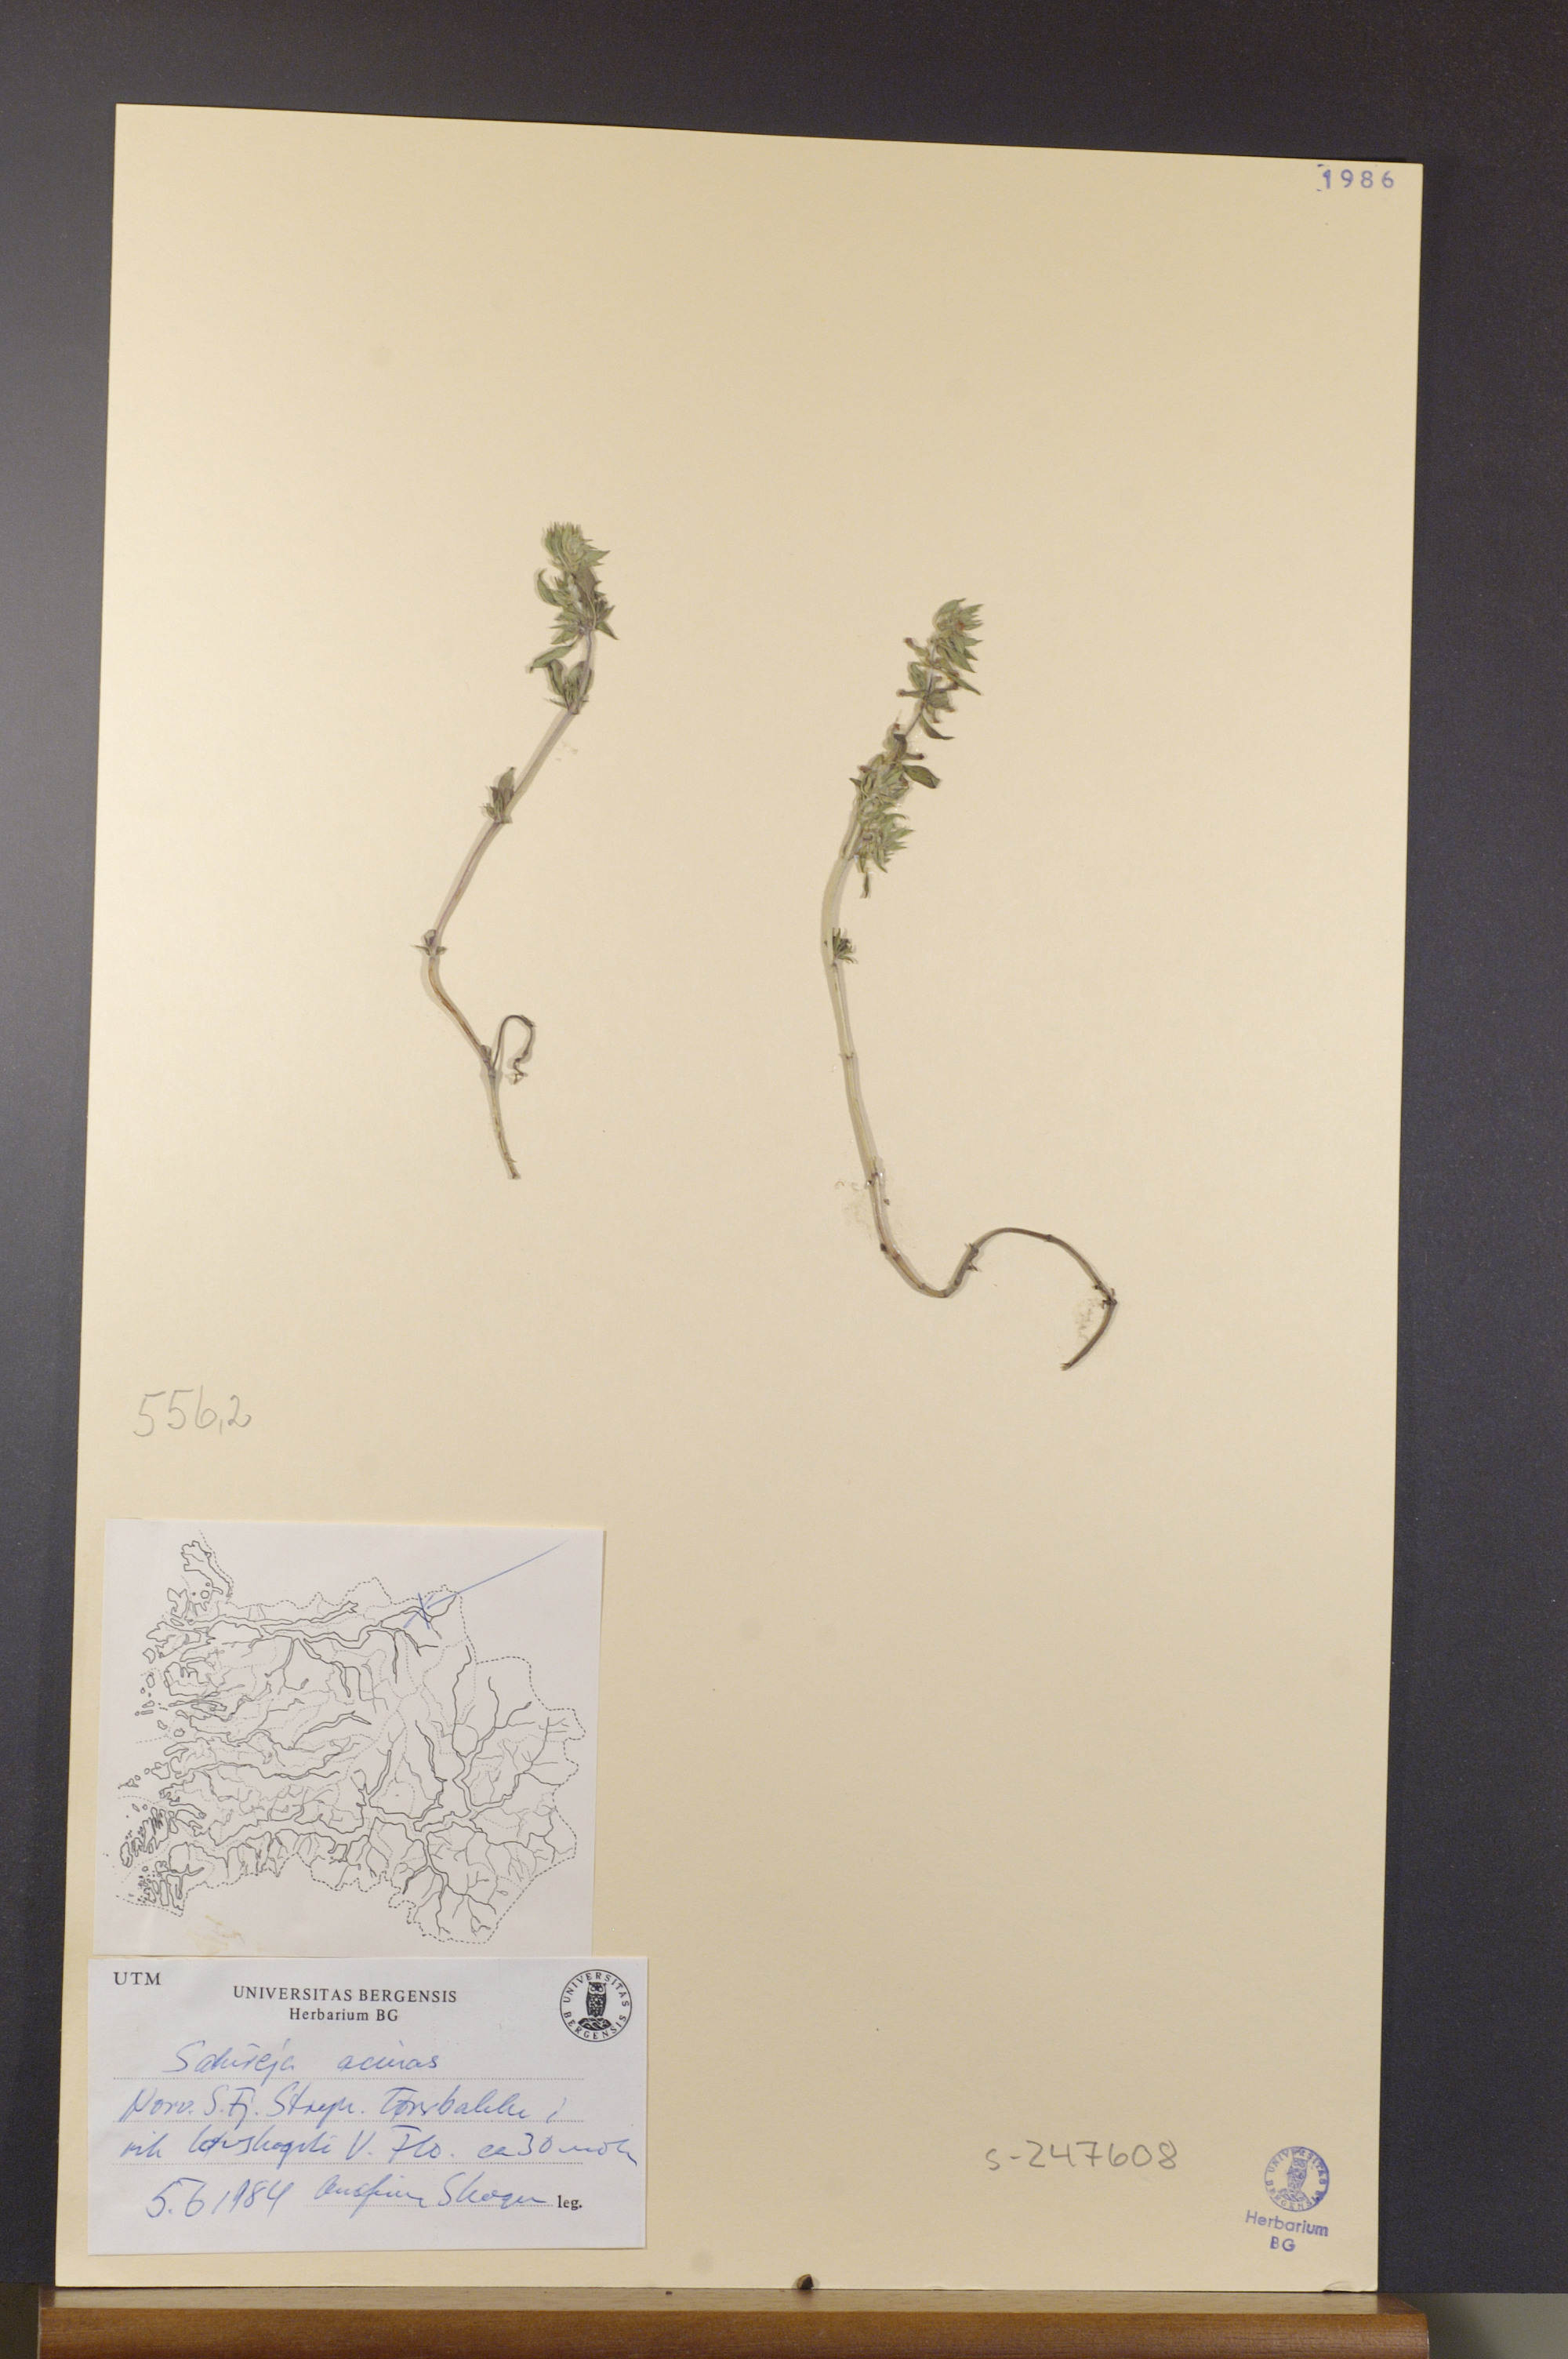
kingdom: Plantae
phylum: Tracheophyta
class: Magnoliopsida
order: Lamiales
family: Lamiaceae
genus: Clinopodium
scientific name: Clinopodium acinos
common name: Basil thyme
